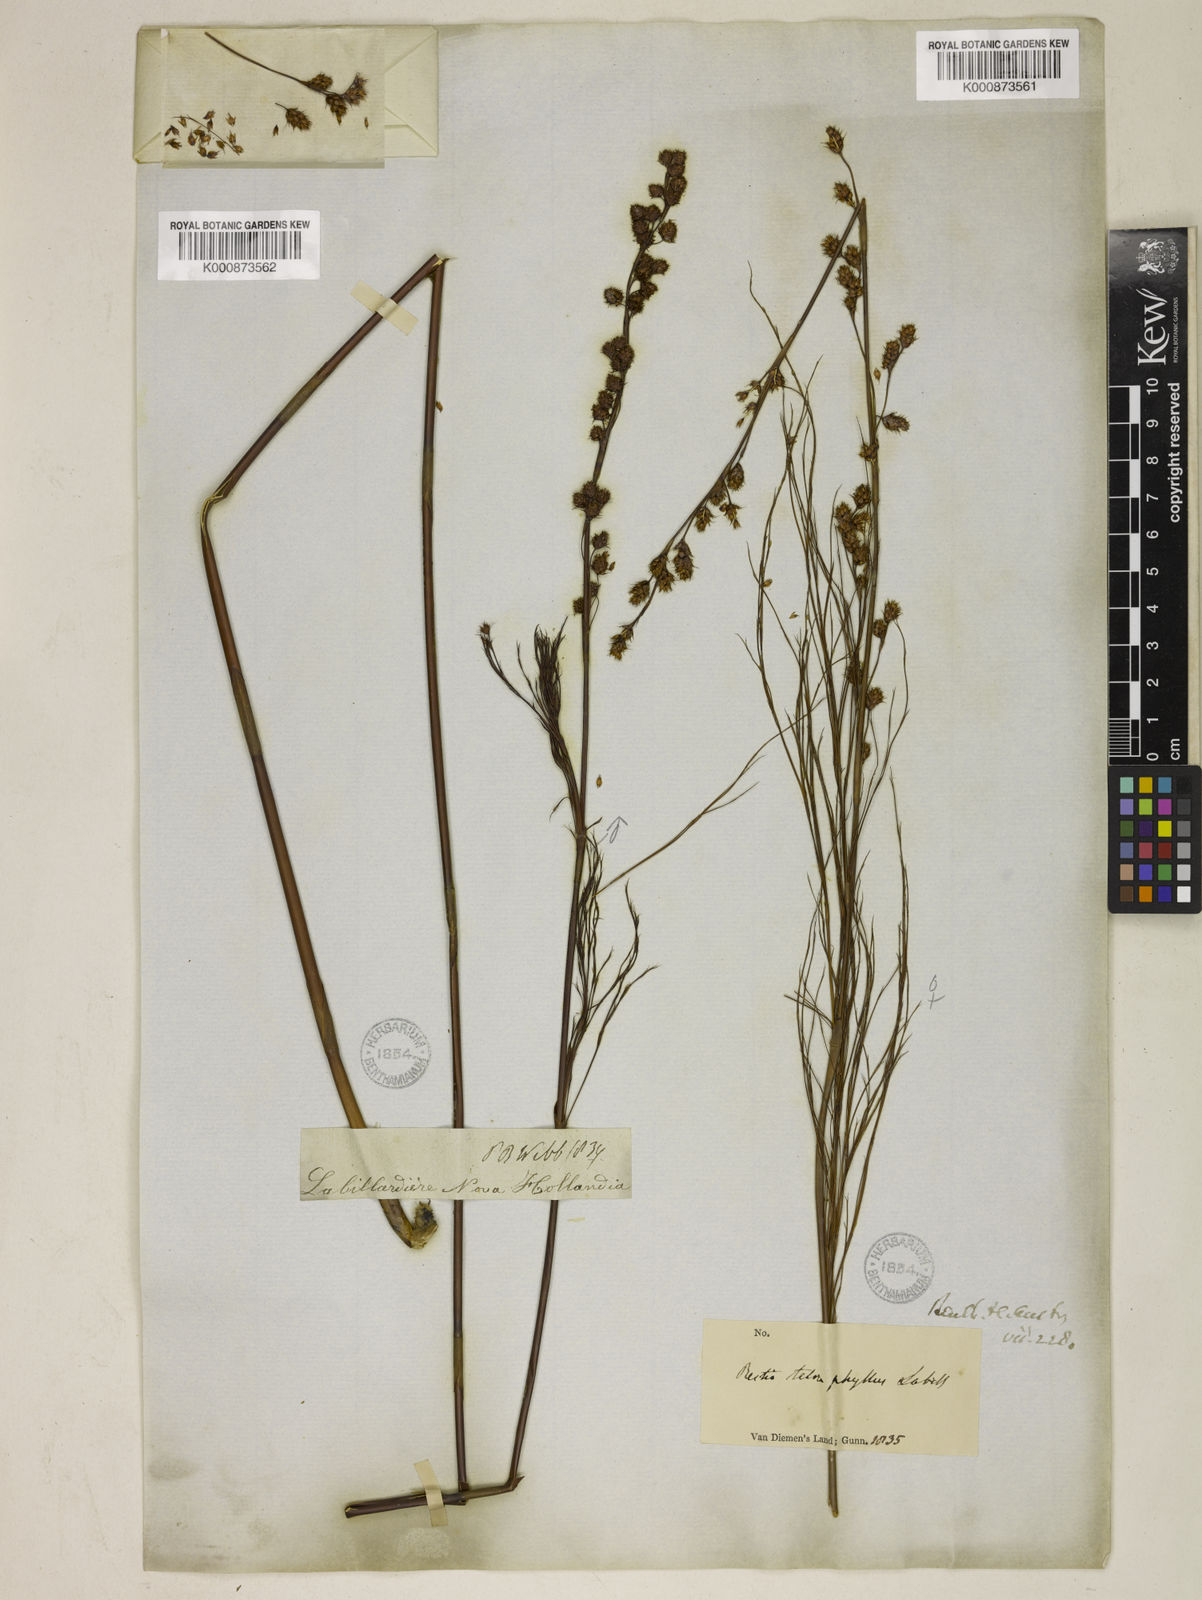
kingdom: Plantae
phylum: Tracheophyta
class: Liliopsida
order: Poales
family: Restionaceae
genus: Baloskion
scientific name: Baloskion tetraphyllum
